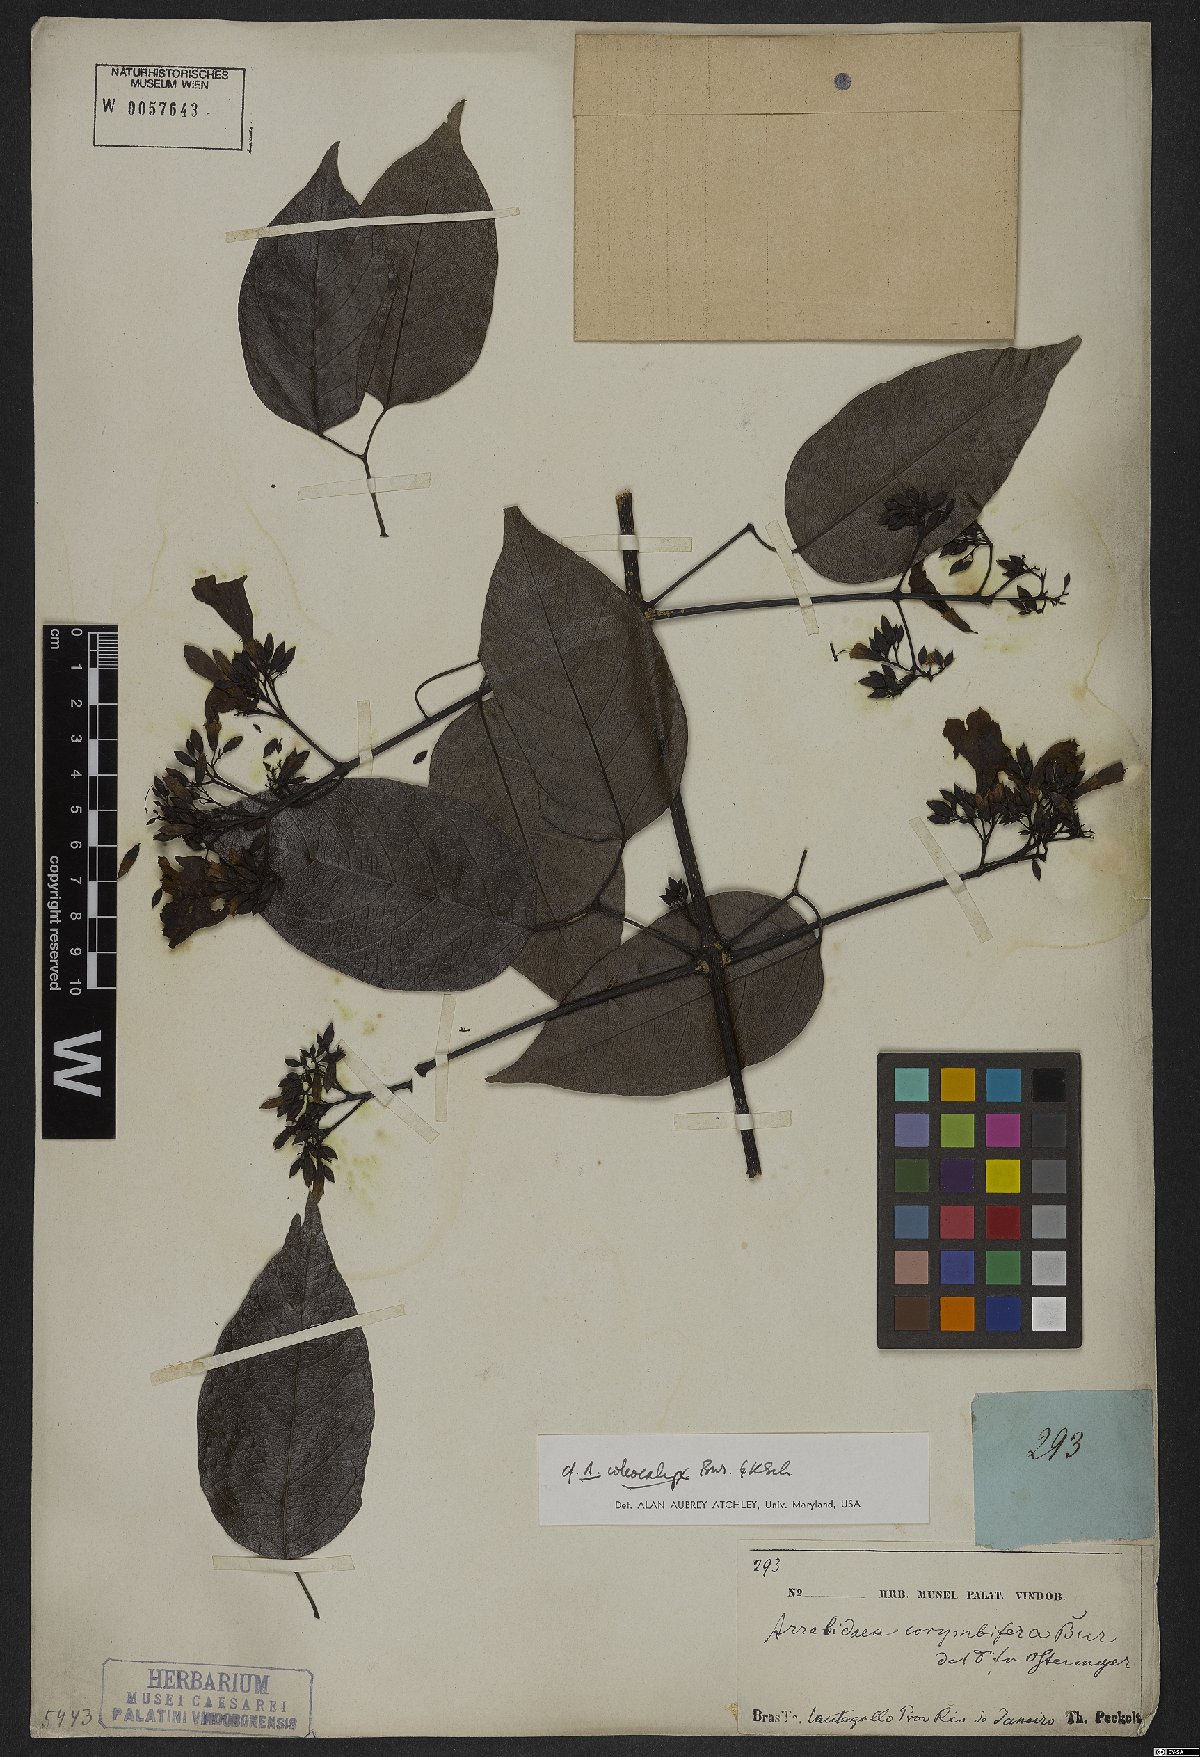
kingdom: Plantae
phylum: Tracheophyta
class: Magnoliopsida
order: Lamiales
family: Bignoniaceae
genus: Fridericia
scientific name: Fridericia caudigera
